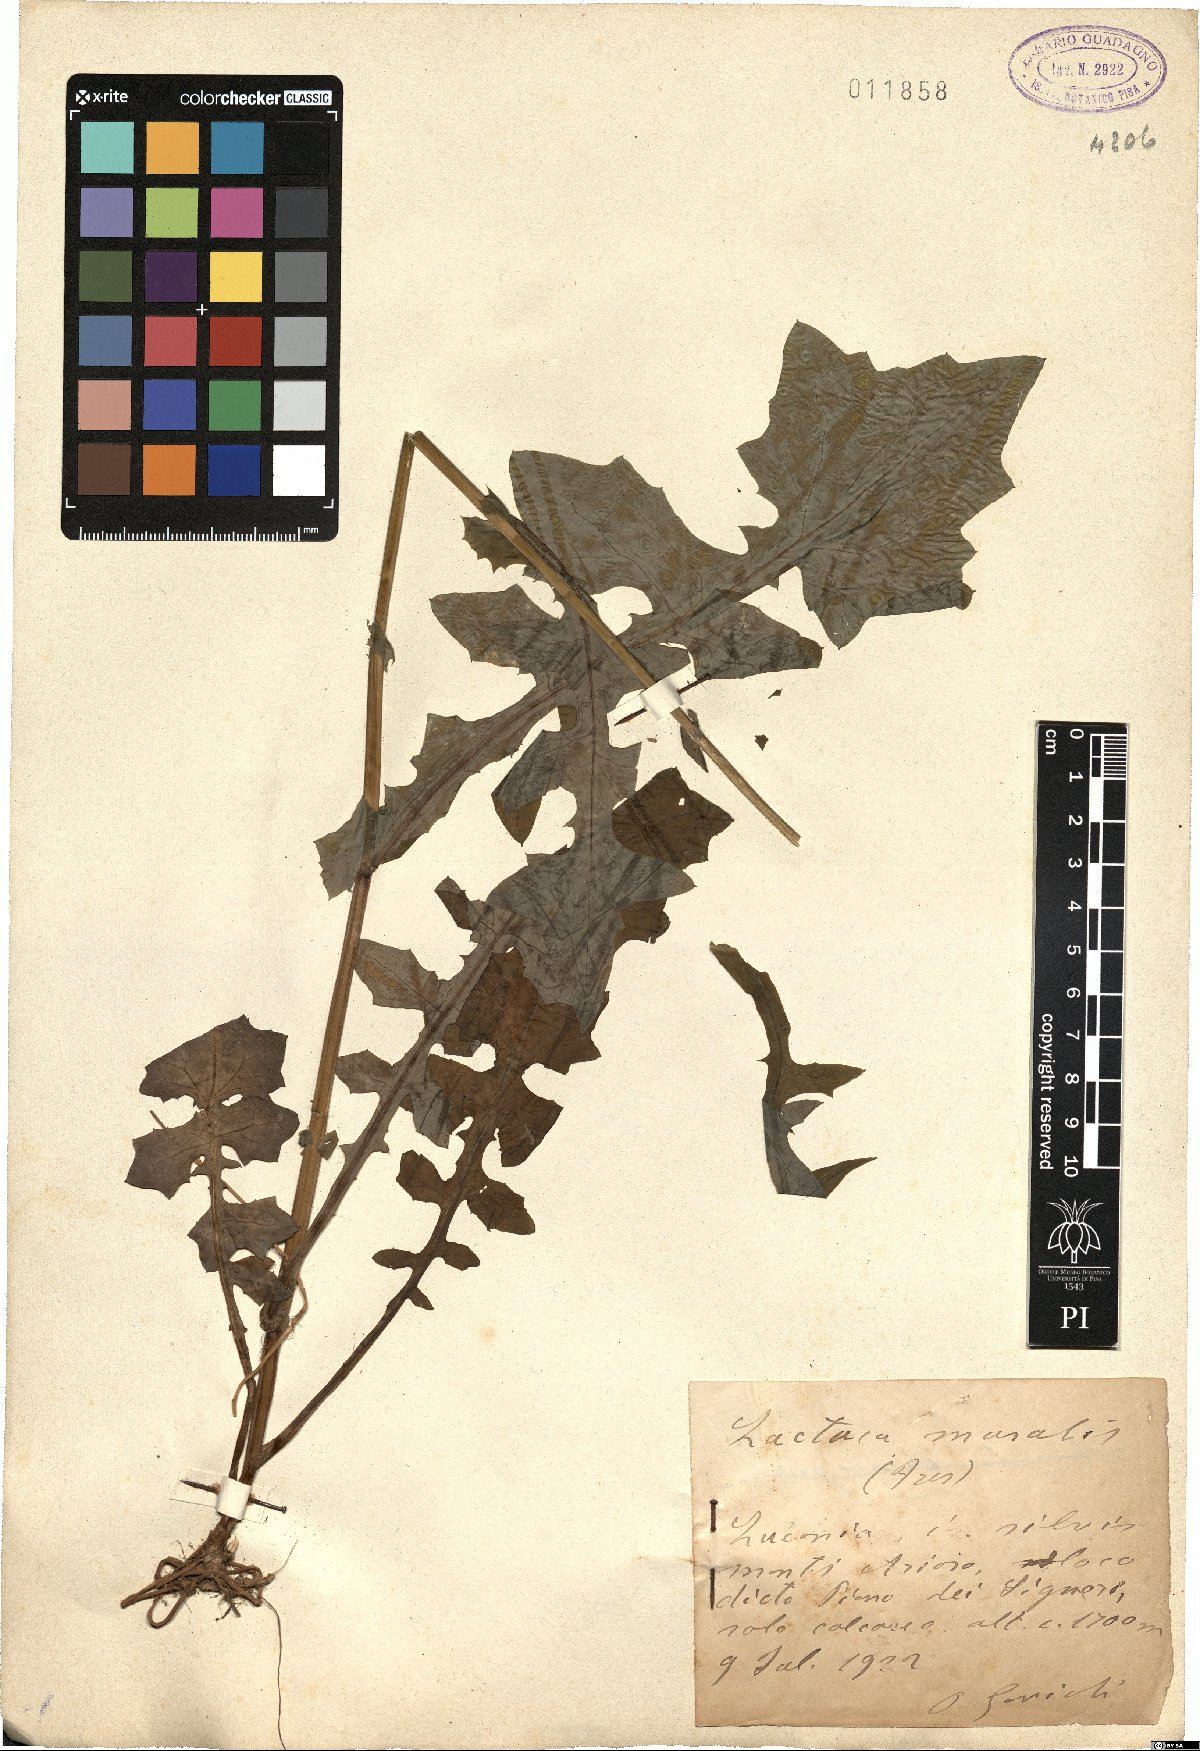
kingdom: Plantae
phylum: Tracheophyta
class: Magnoliopsida
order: Asterales
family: Asteraceae
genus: Mycelis
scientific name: Mycelis muralis
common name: Wall lettuce
